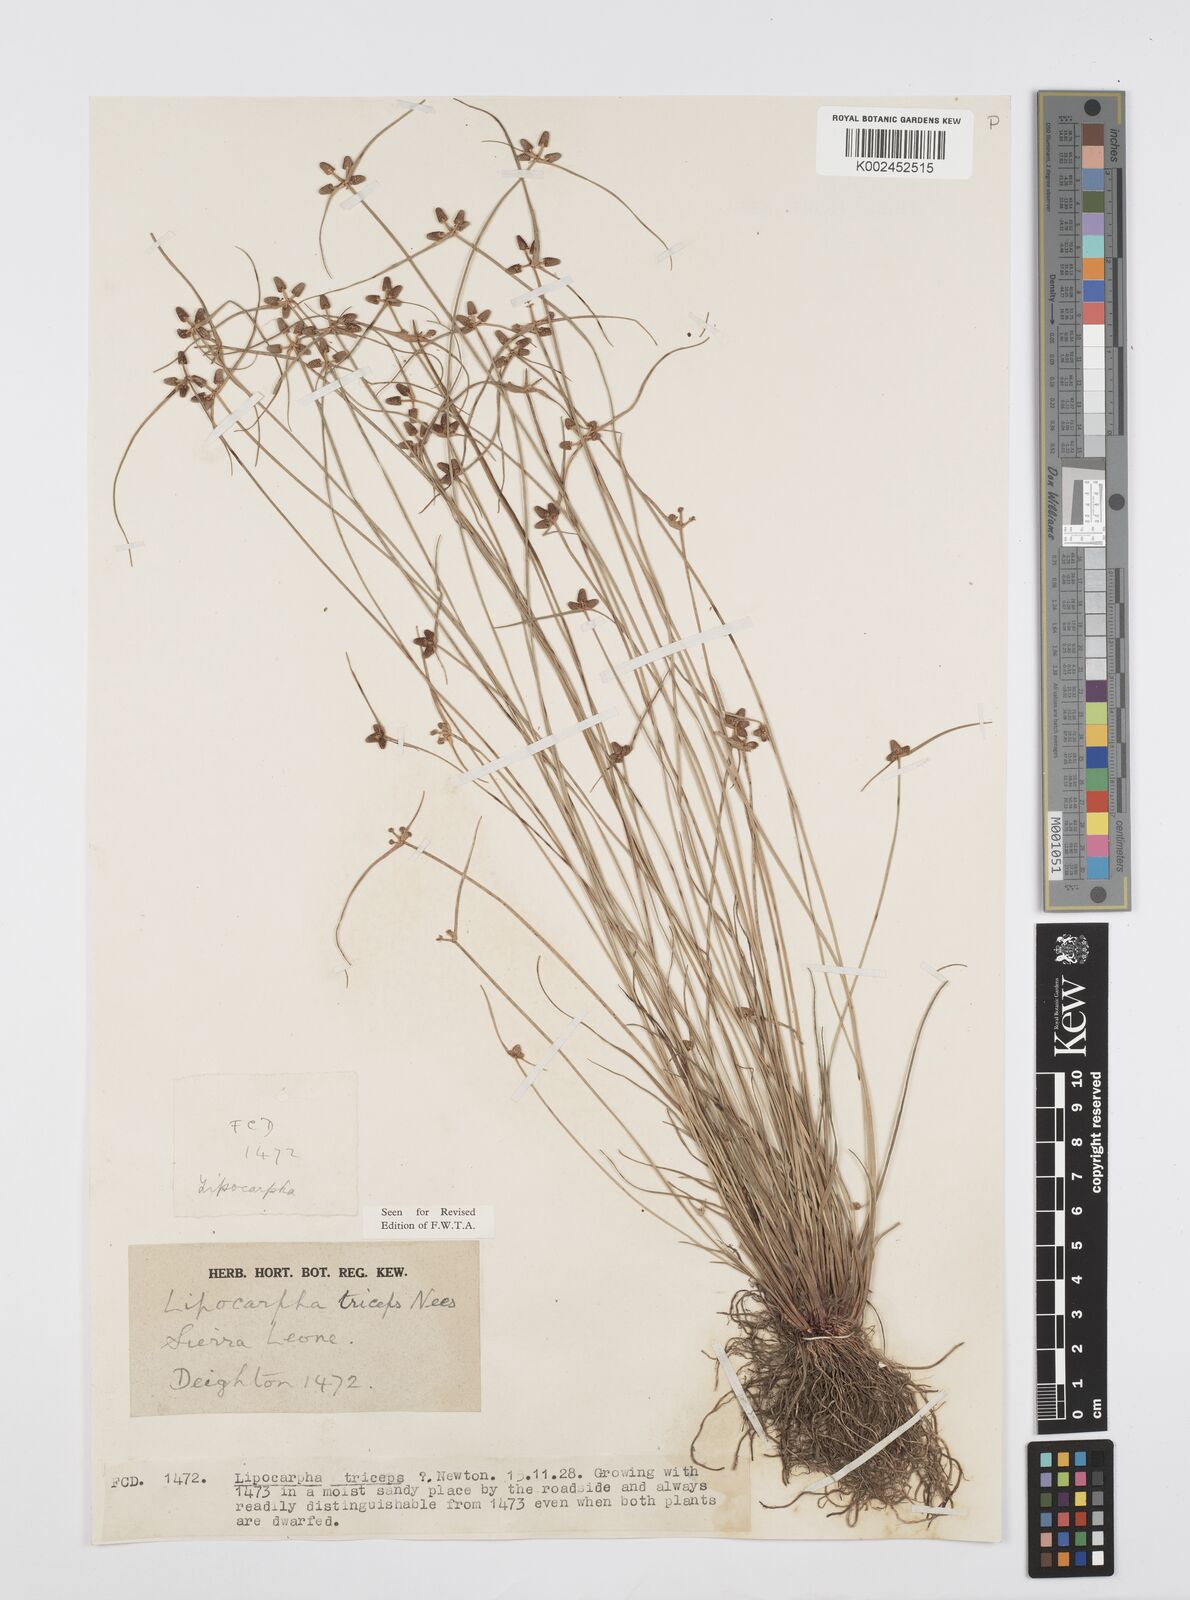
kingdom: Plantae
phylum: Tracheophyta
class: Liliopsida
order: Poales
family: Cyperaceae
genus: Cyperus
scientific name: Cyperus filiformis
